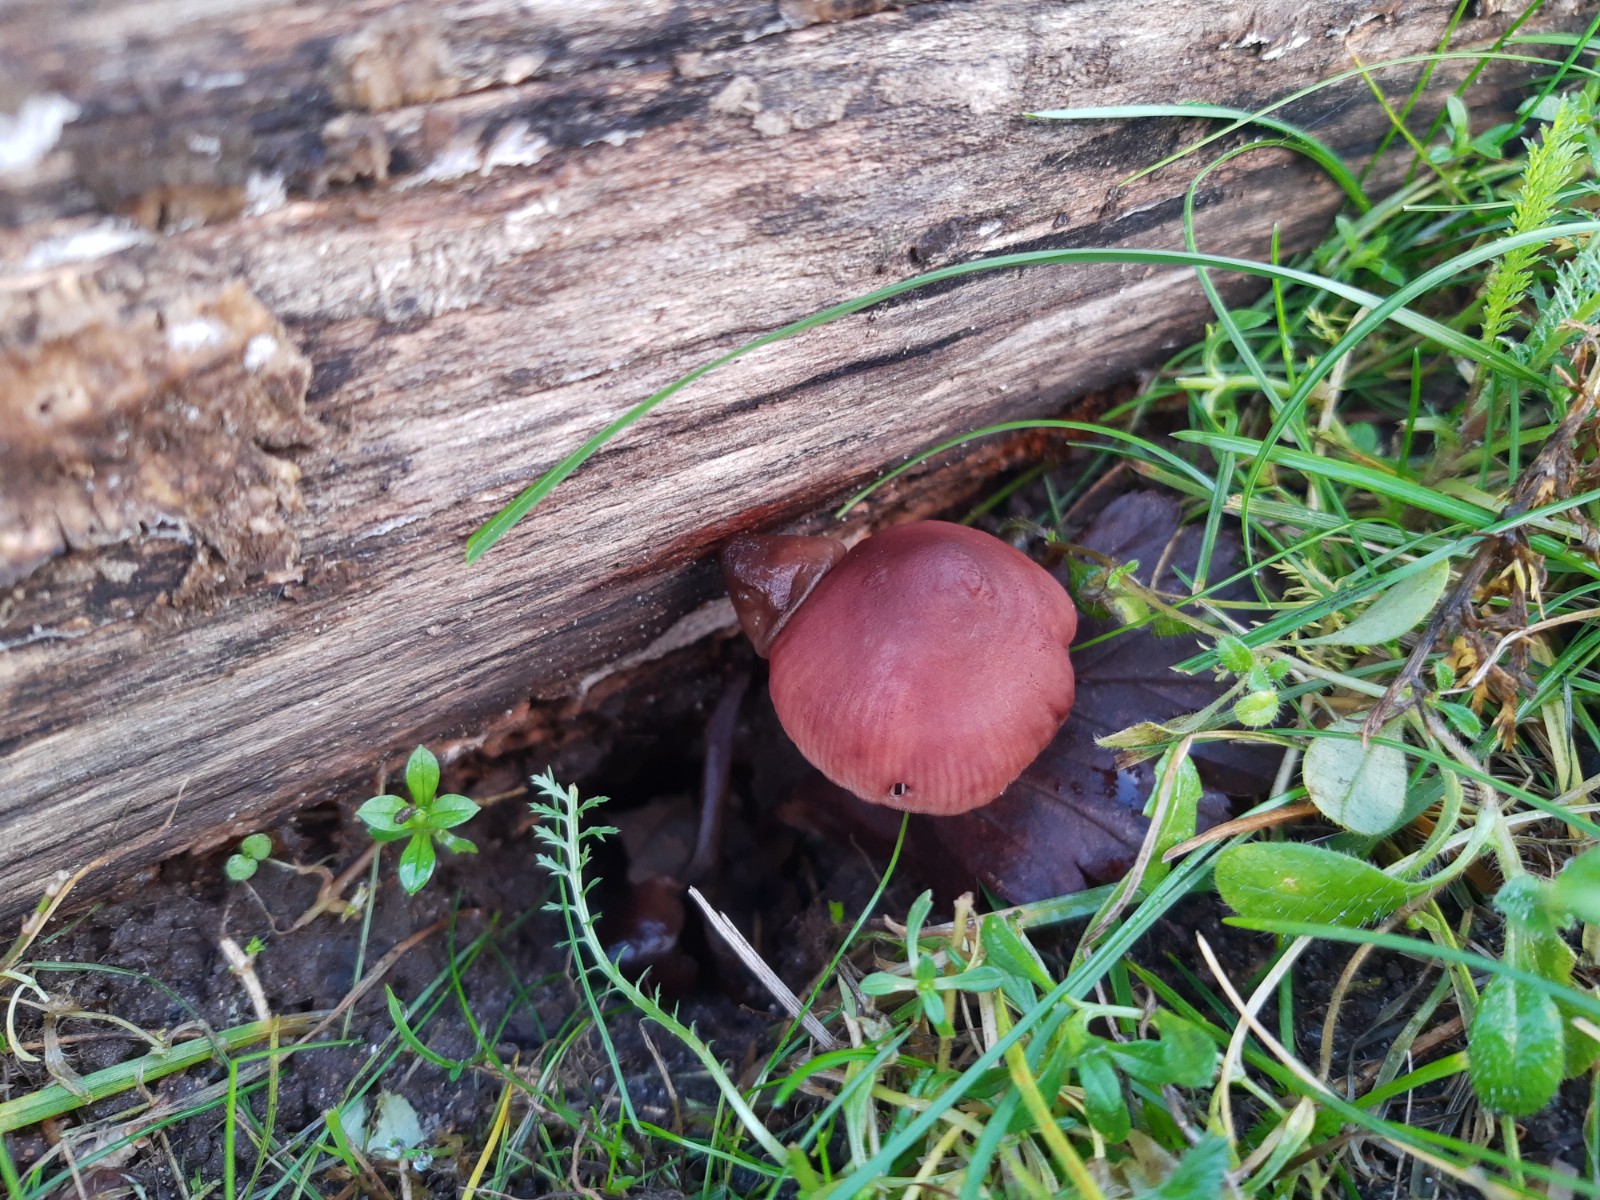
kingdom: Fungi
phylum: Basidiomycota
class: Agaricomycetes
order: Agaricales
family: Mycenaceae
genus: Mycena
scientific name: Mycena haematopus
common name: blødende huesvamp
